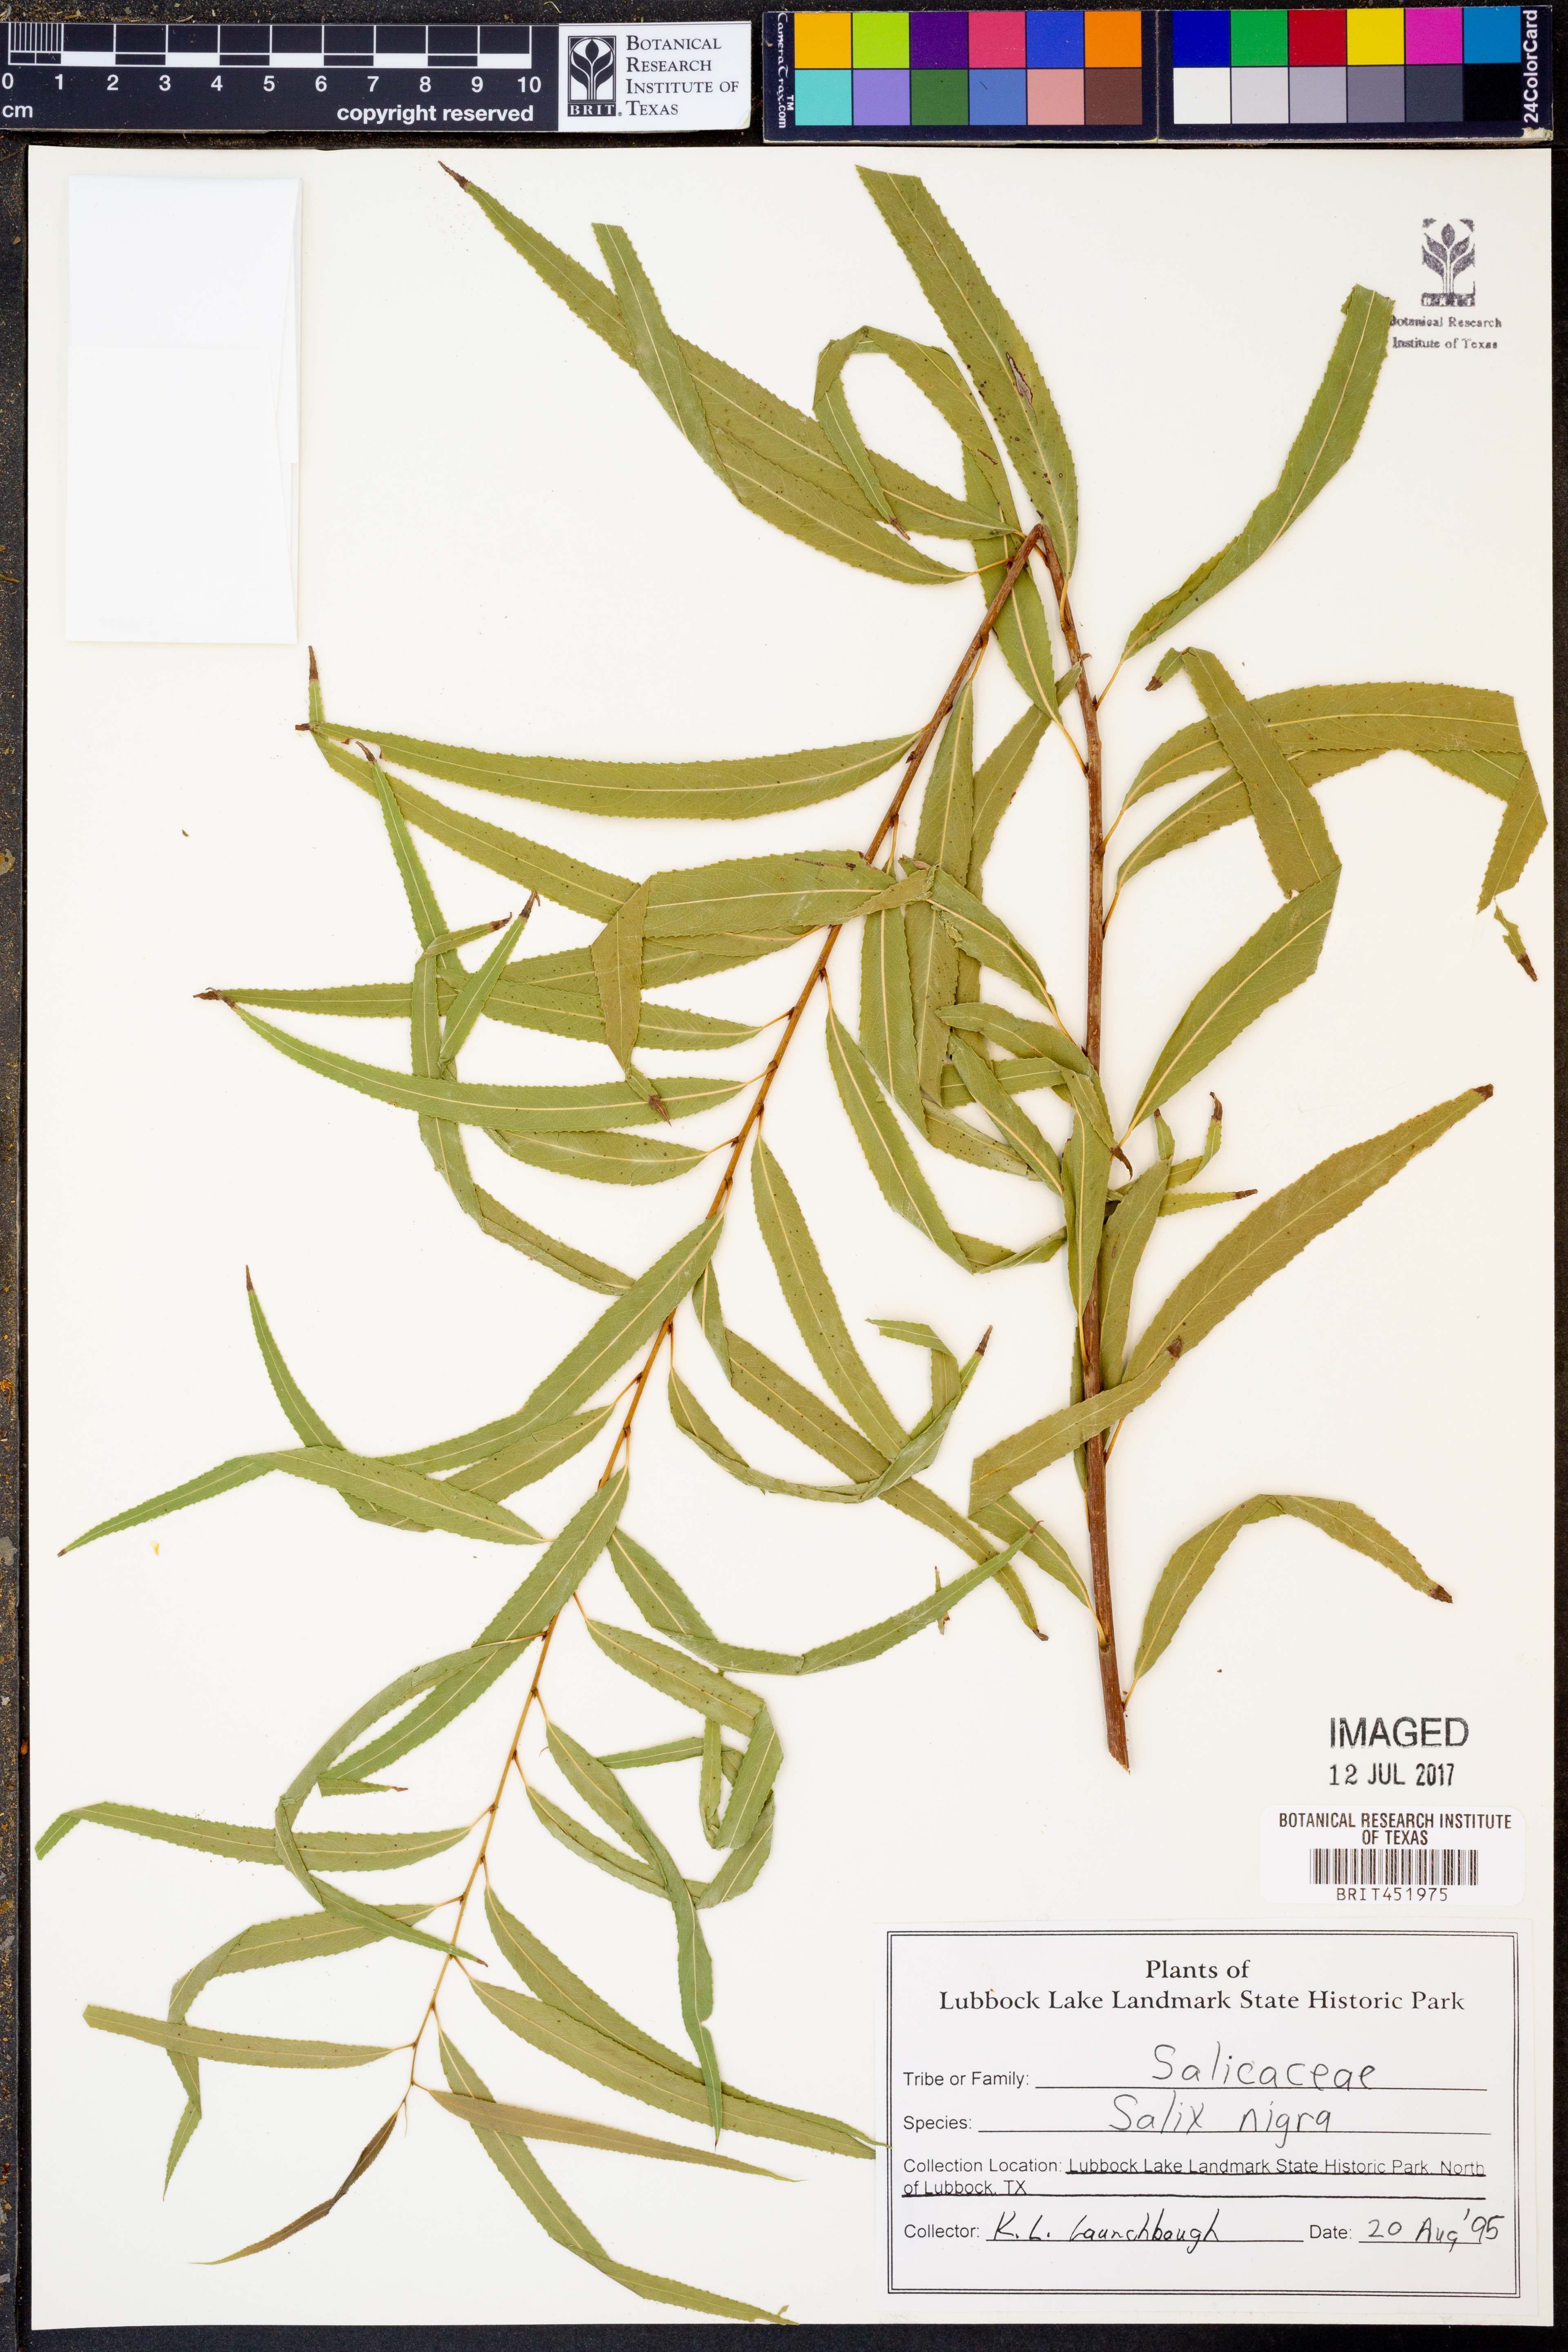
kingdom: Plantae
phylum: Tracheophyta
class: Magnoliopsida
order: Malpighiales
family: Salicaceae
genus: Salix
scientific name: Salix nigra
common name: Black willow
